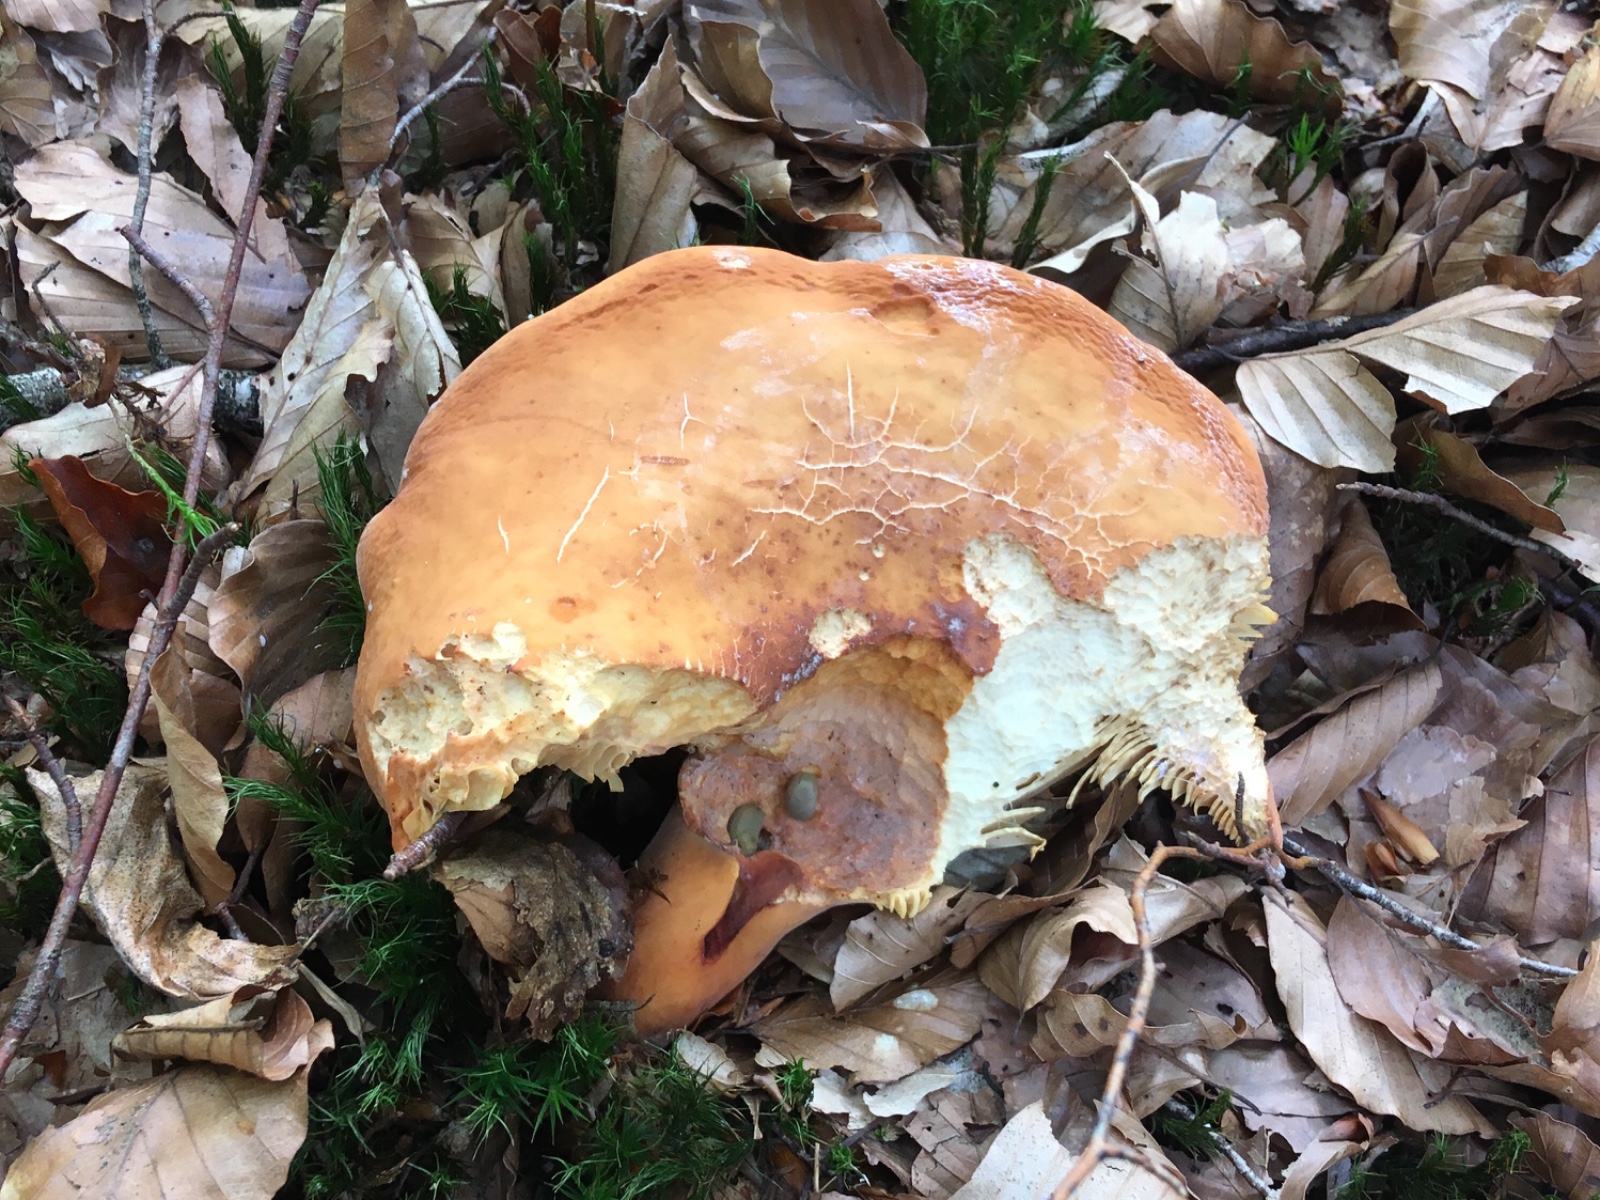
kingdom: Fungi
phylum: Basidiomycota
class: Agaricomycetes
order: Russulales
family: Russulaceae
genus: Lactifluus
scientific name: Lactifluus volemus
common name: spiselig mælkehat
